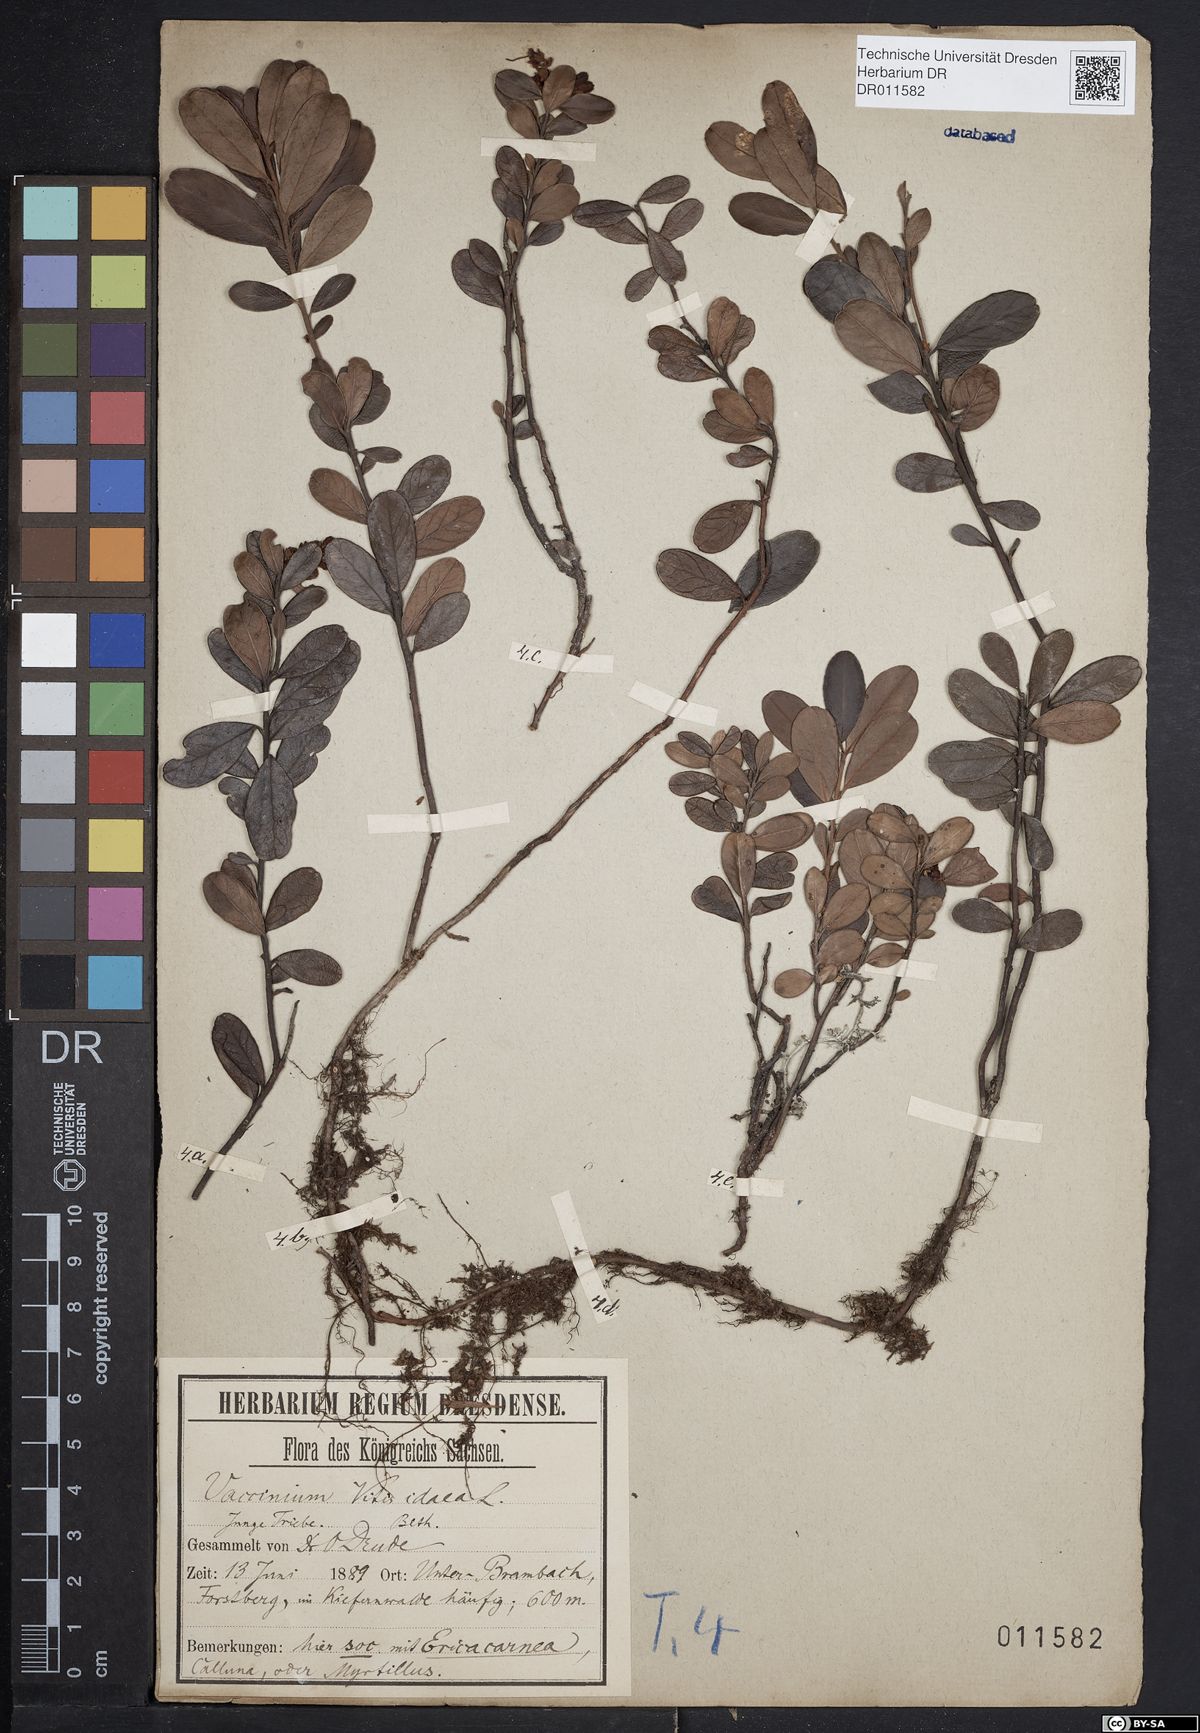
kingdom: Plantae
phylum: Tracheophyta
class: Magnoliopsida
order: Ericales
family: Ericaceae
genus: Vaccinium
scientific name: Vaccinium vitis-idaea
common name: Cowberry
